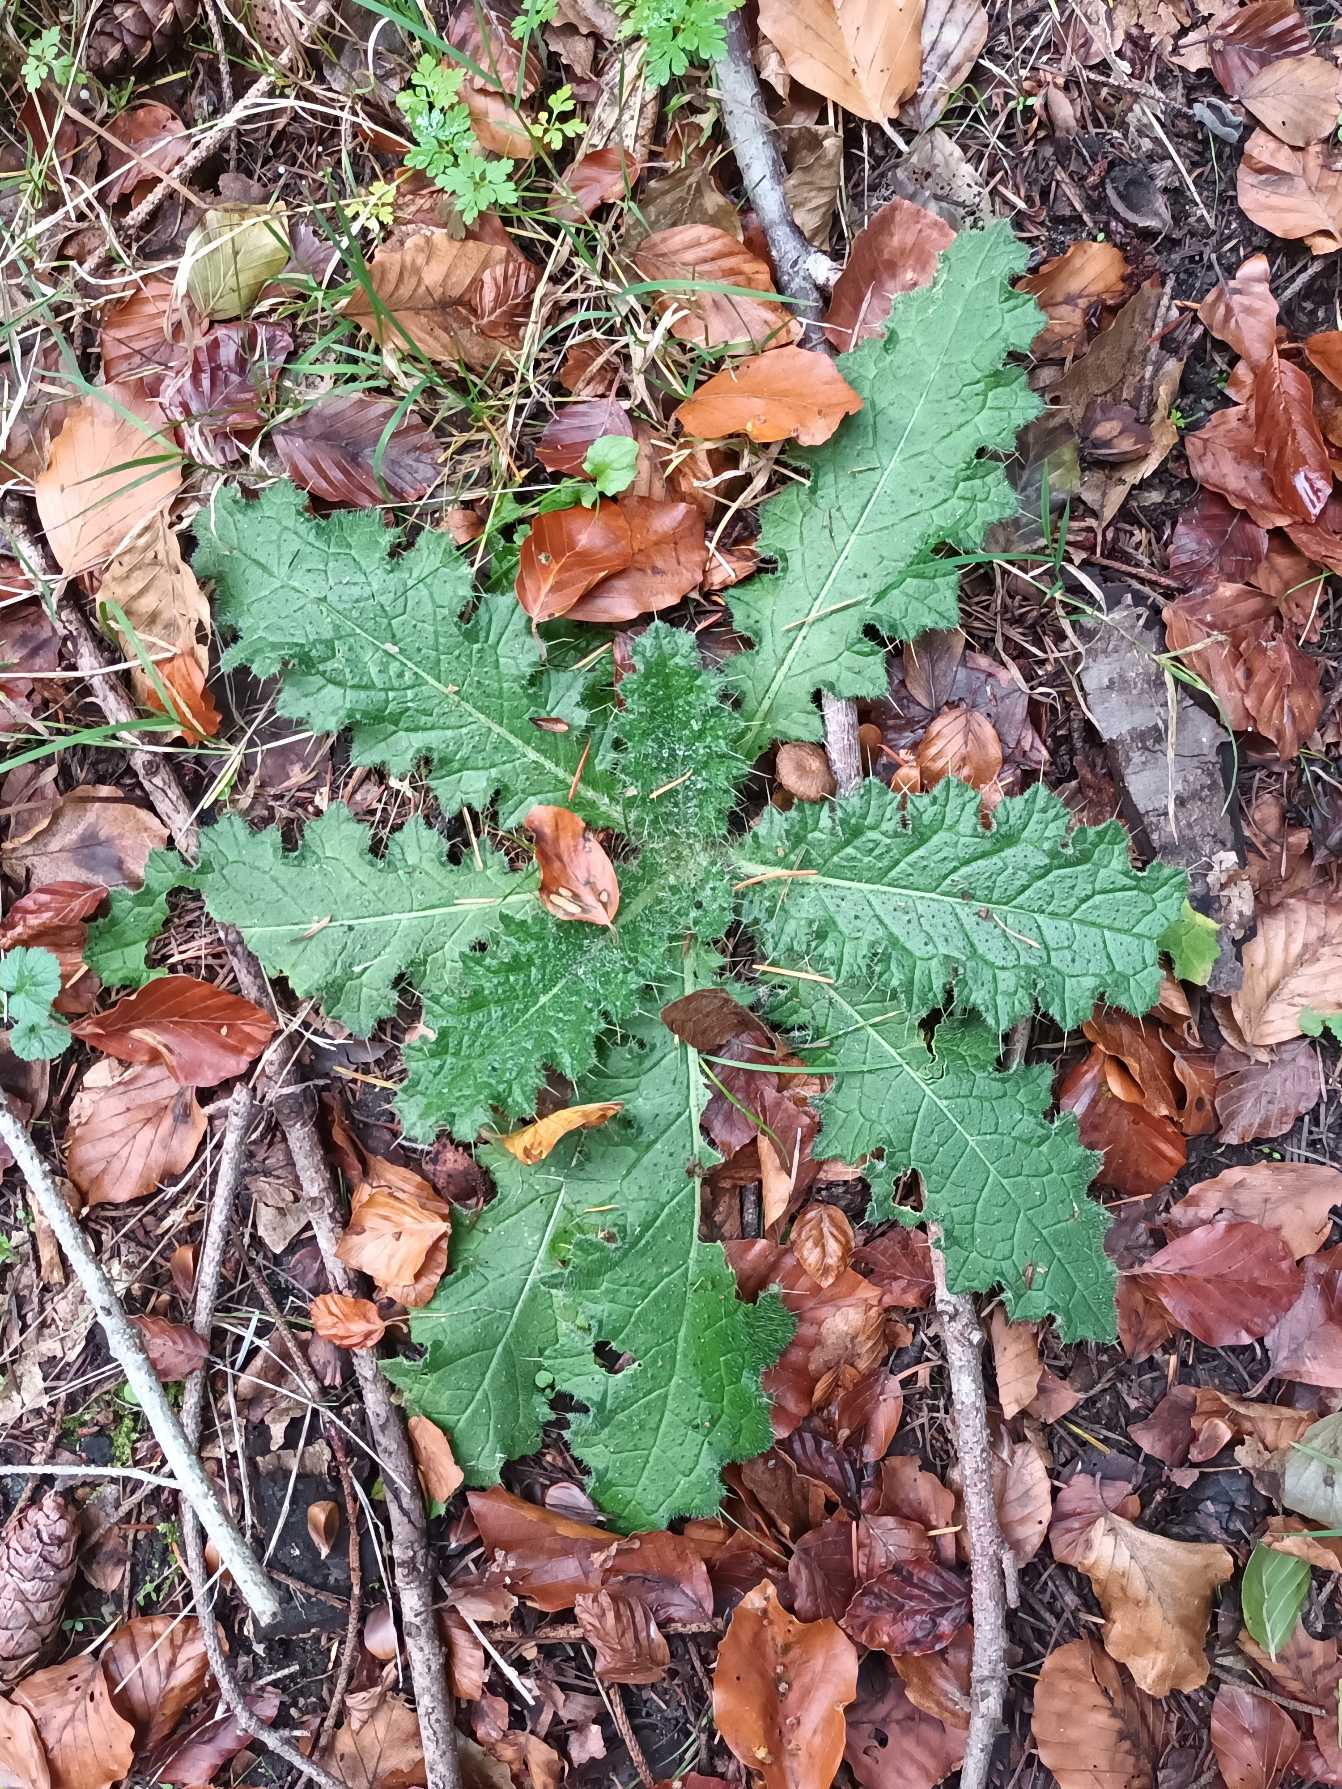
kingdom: Plantae
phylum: Tracheophyta
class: Magnoliopsida
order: Asterales
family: Asteraceae
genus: Cirsium
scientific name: Cirsium vulgare
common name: Horse-tidsel
